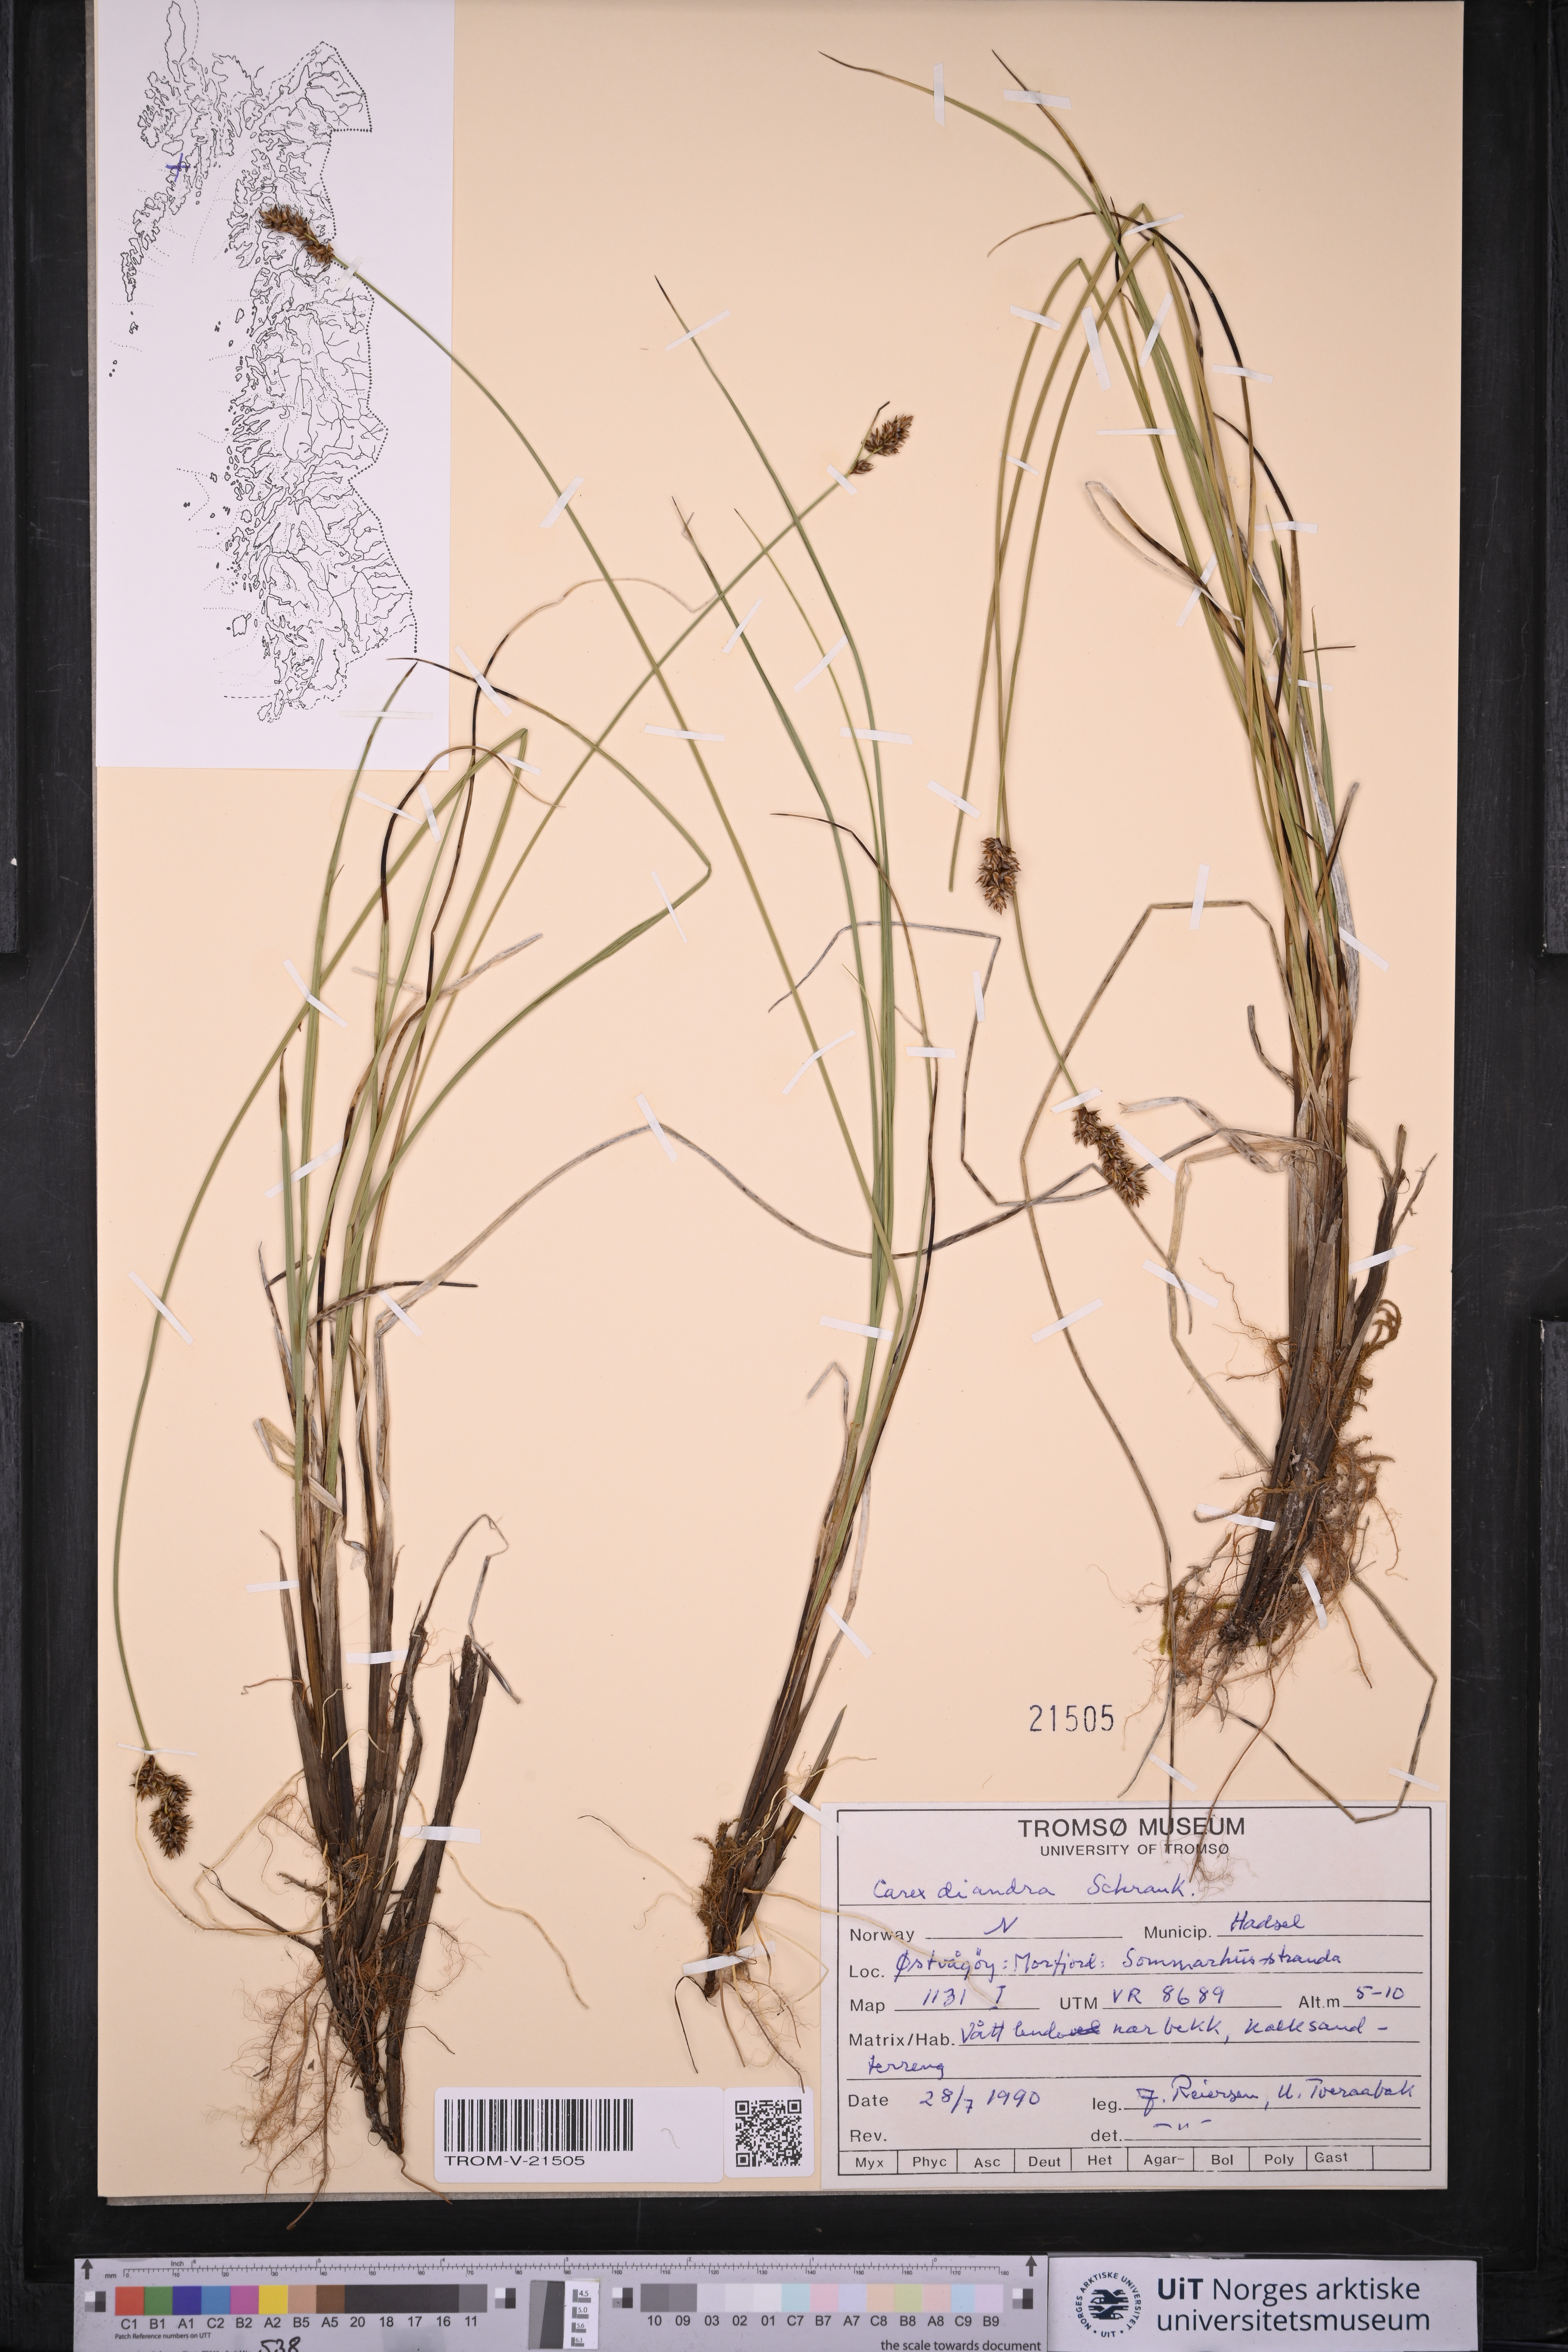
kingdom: Plantae
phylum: Tracheophyta
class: Liliopsida
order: Poales
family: Cyperaceae
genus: Carex
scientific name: Carex diandra
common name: Lesser tussock-sedge
